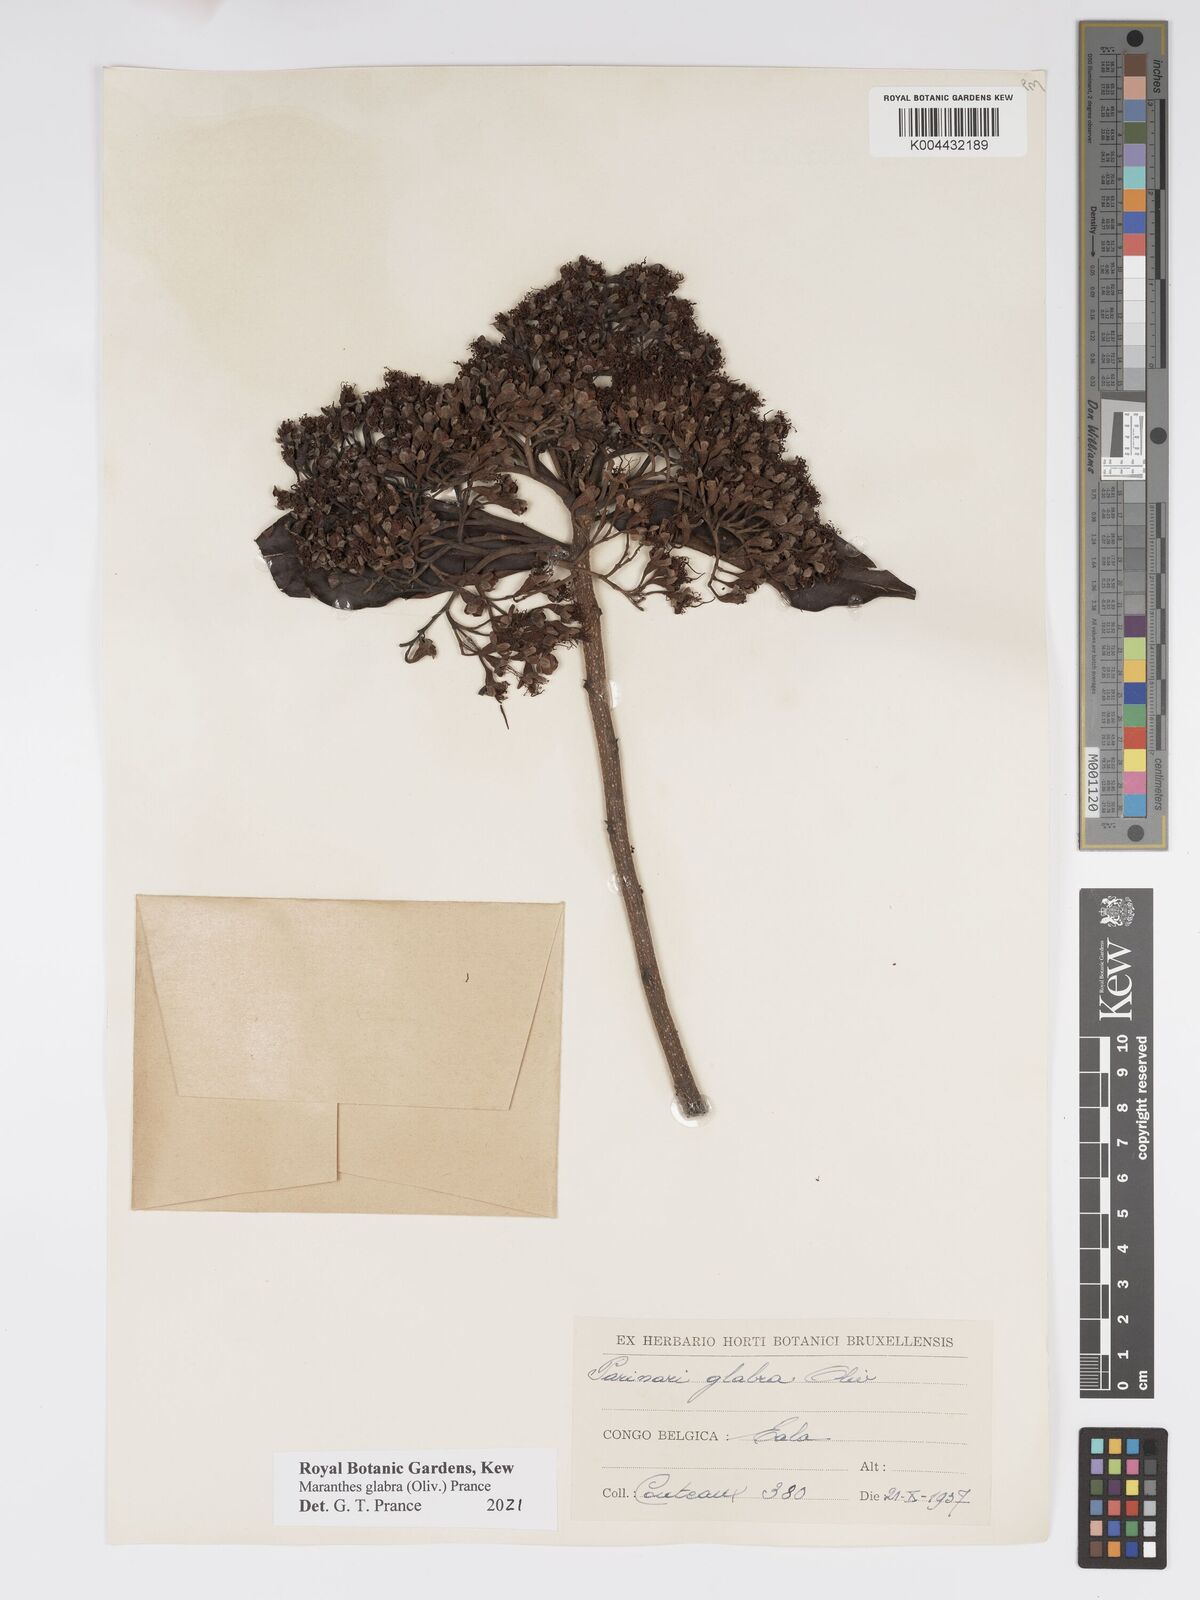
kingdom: Plantae
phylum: Tracheophyta
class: Magnoliopsida
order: Malpighiales
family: Chrysobalanaceae
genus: Maranthes
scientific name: Maranthes glabra
